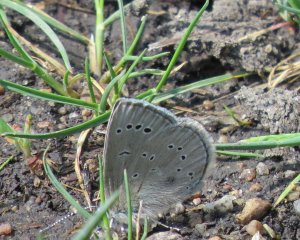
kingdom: Animalia
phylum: Arthropoda
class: Insecta
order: Lepidoptera
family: Lycaenidae
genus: Glaucopsyche
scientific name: Glaucopsyche lygdamus
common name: Silvery Blue
